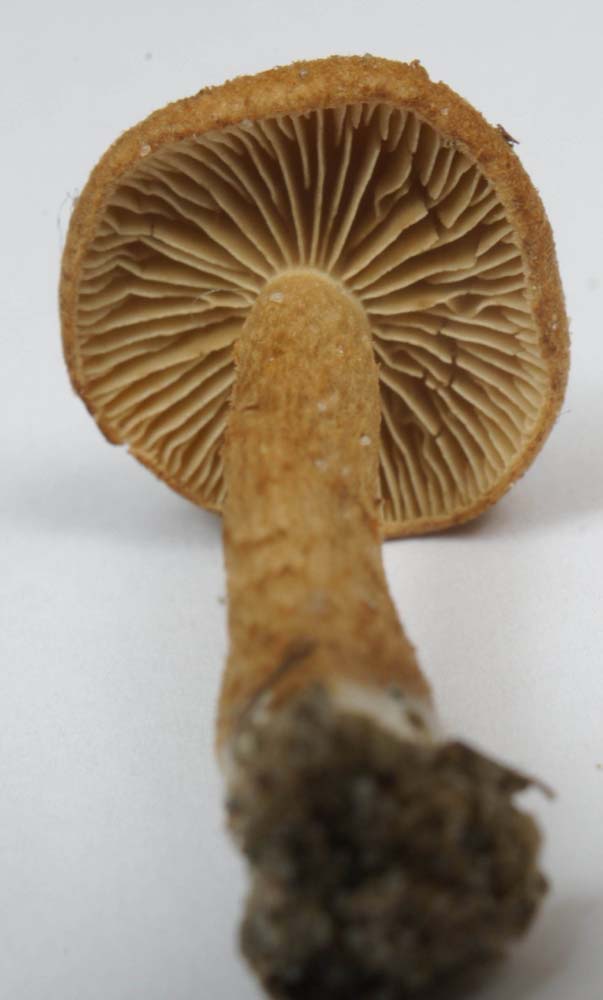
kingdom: Fungi
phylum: Basidiomycota
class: Agaricomycetes
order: Agaricales
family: Inocybaceae
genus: Inocybe
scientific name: Inocybe dulcamara
